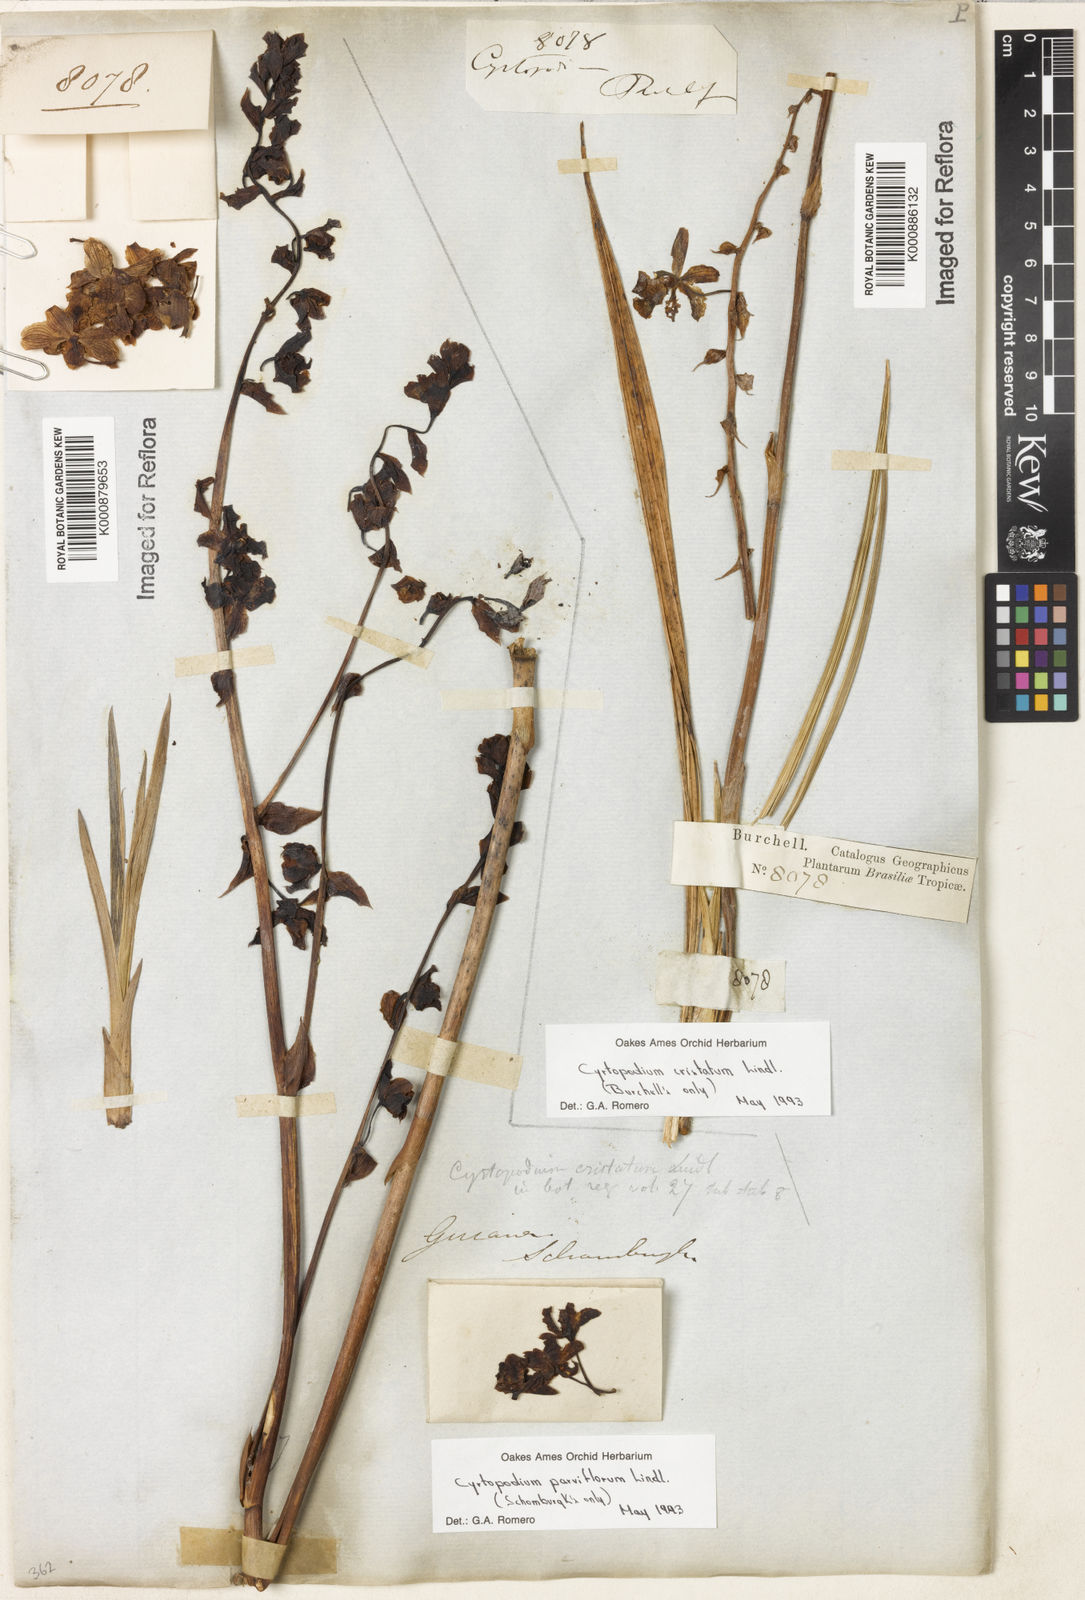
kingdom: Plantae
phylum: Tracheophyta
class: Liliopsida
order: Asparagales
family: Orchidaceae
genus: Cyrtopodium
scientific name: Cyrtopodium parviflorum
